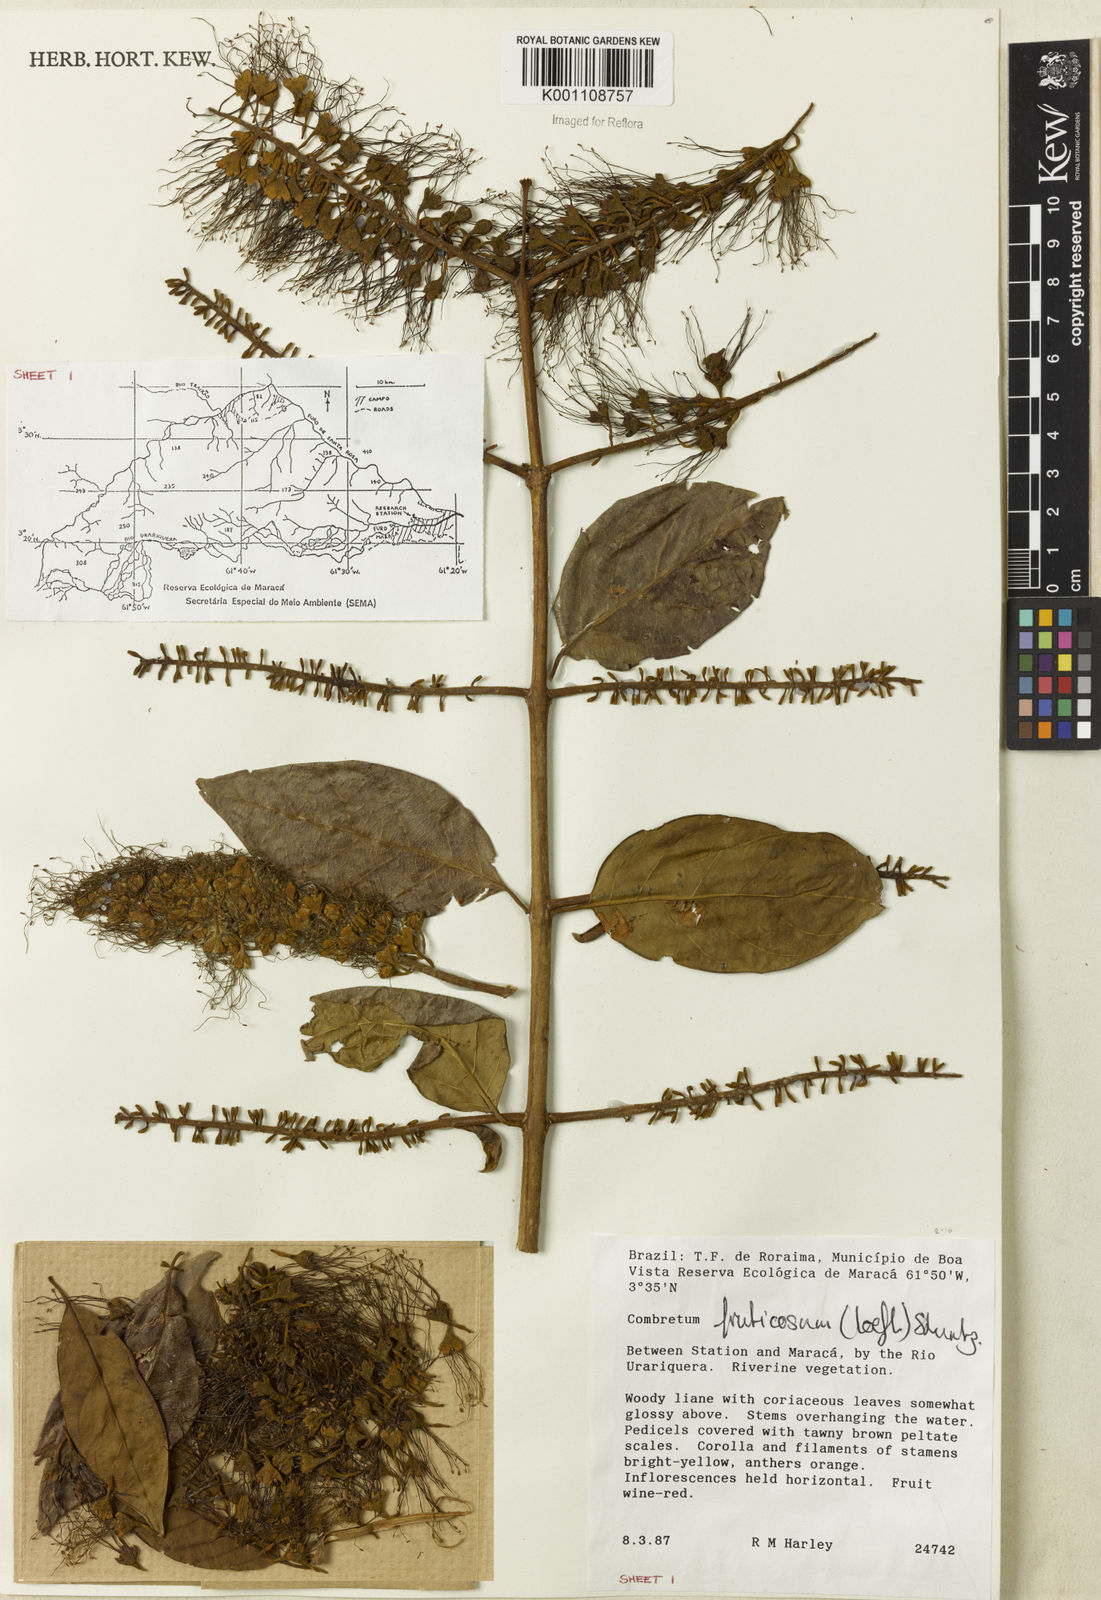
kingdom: Plantae
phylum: Tracheophyta
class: Magnoliopsida
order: Myrtales
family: Combretaceae
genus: Combretum
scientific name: Combretum fruticosum
